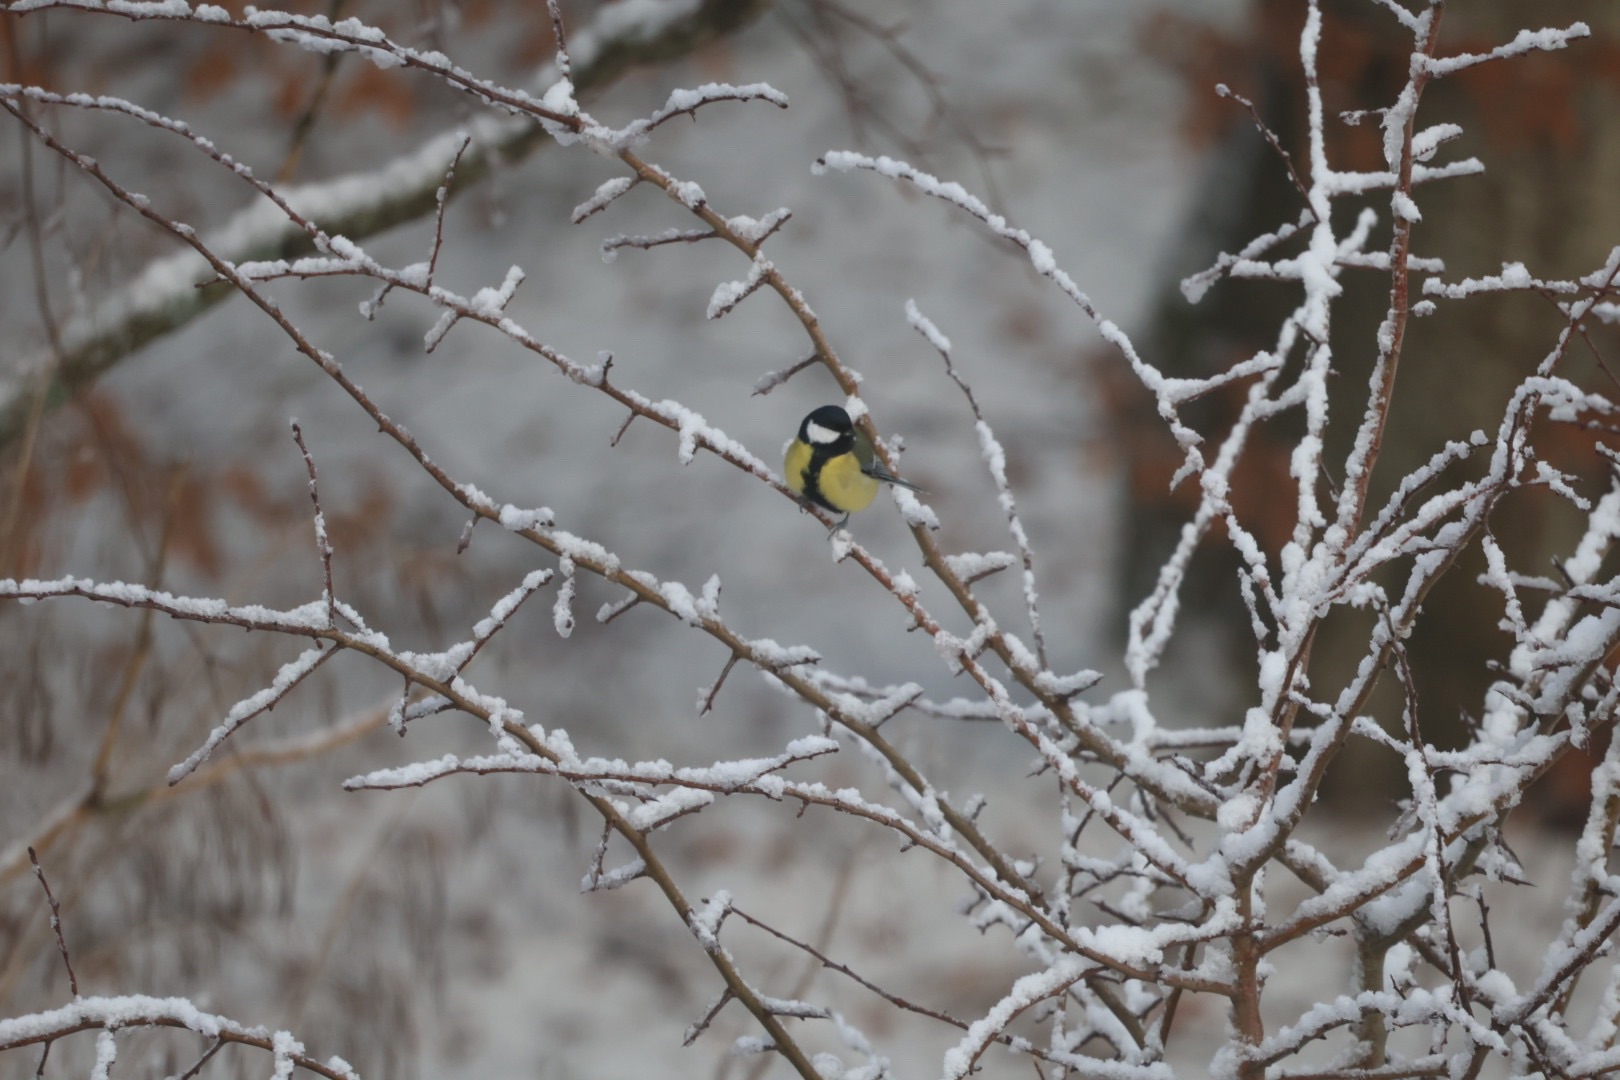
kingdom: Animalia
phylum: Chordata
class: Aves
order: Passeriformes
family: Paridae
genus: Parus
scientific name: Parus major
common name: Musvit
